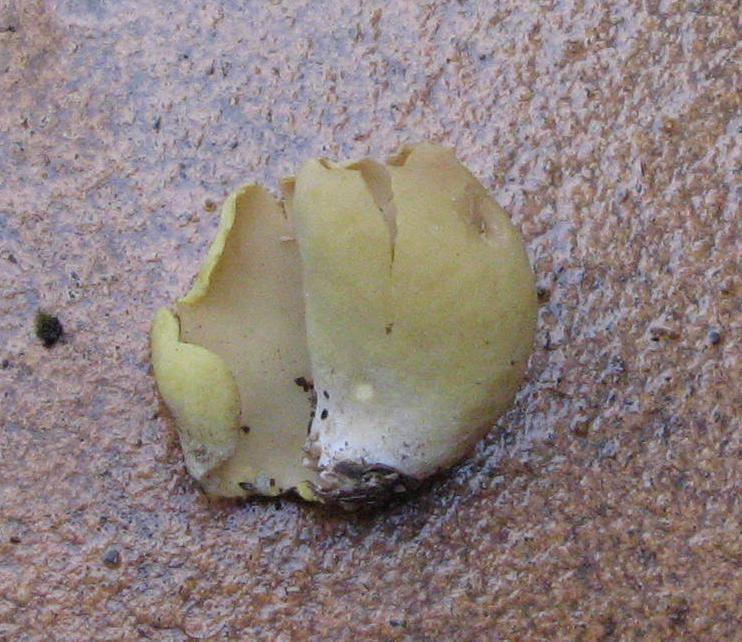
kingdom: Fungi
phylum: Ascomycota
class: Pezizomycetes
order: Pezizales
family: Otideaceae
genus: Otidea
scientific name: Otidea cantharella
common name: citrongul ørebæger
